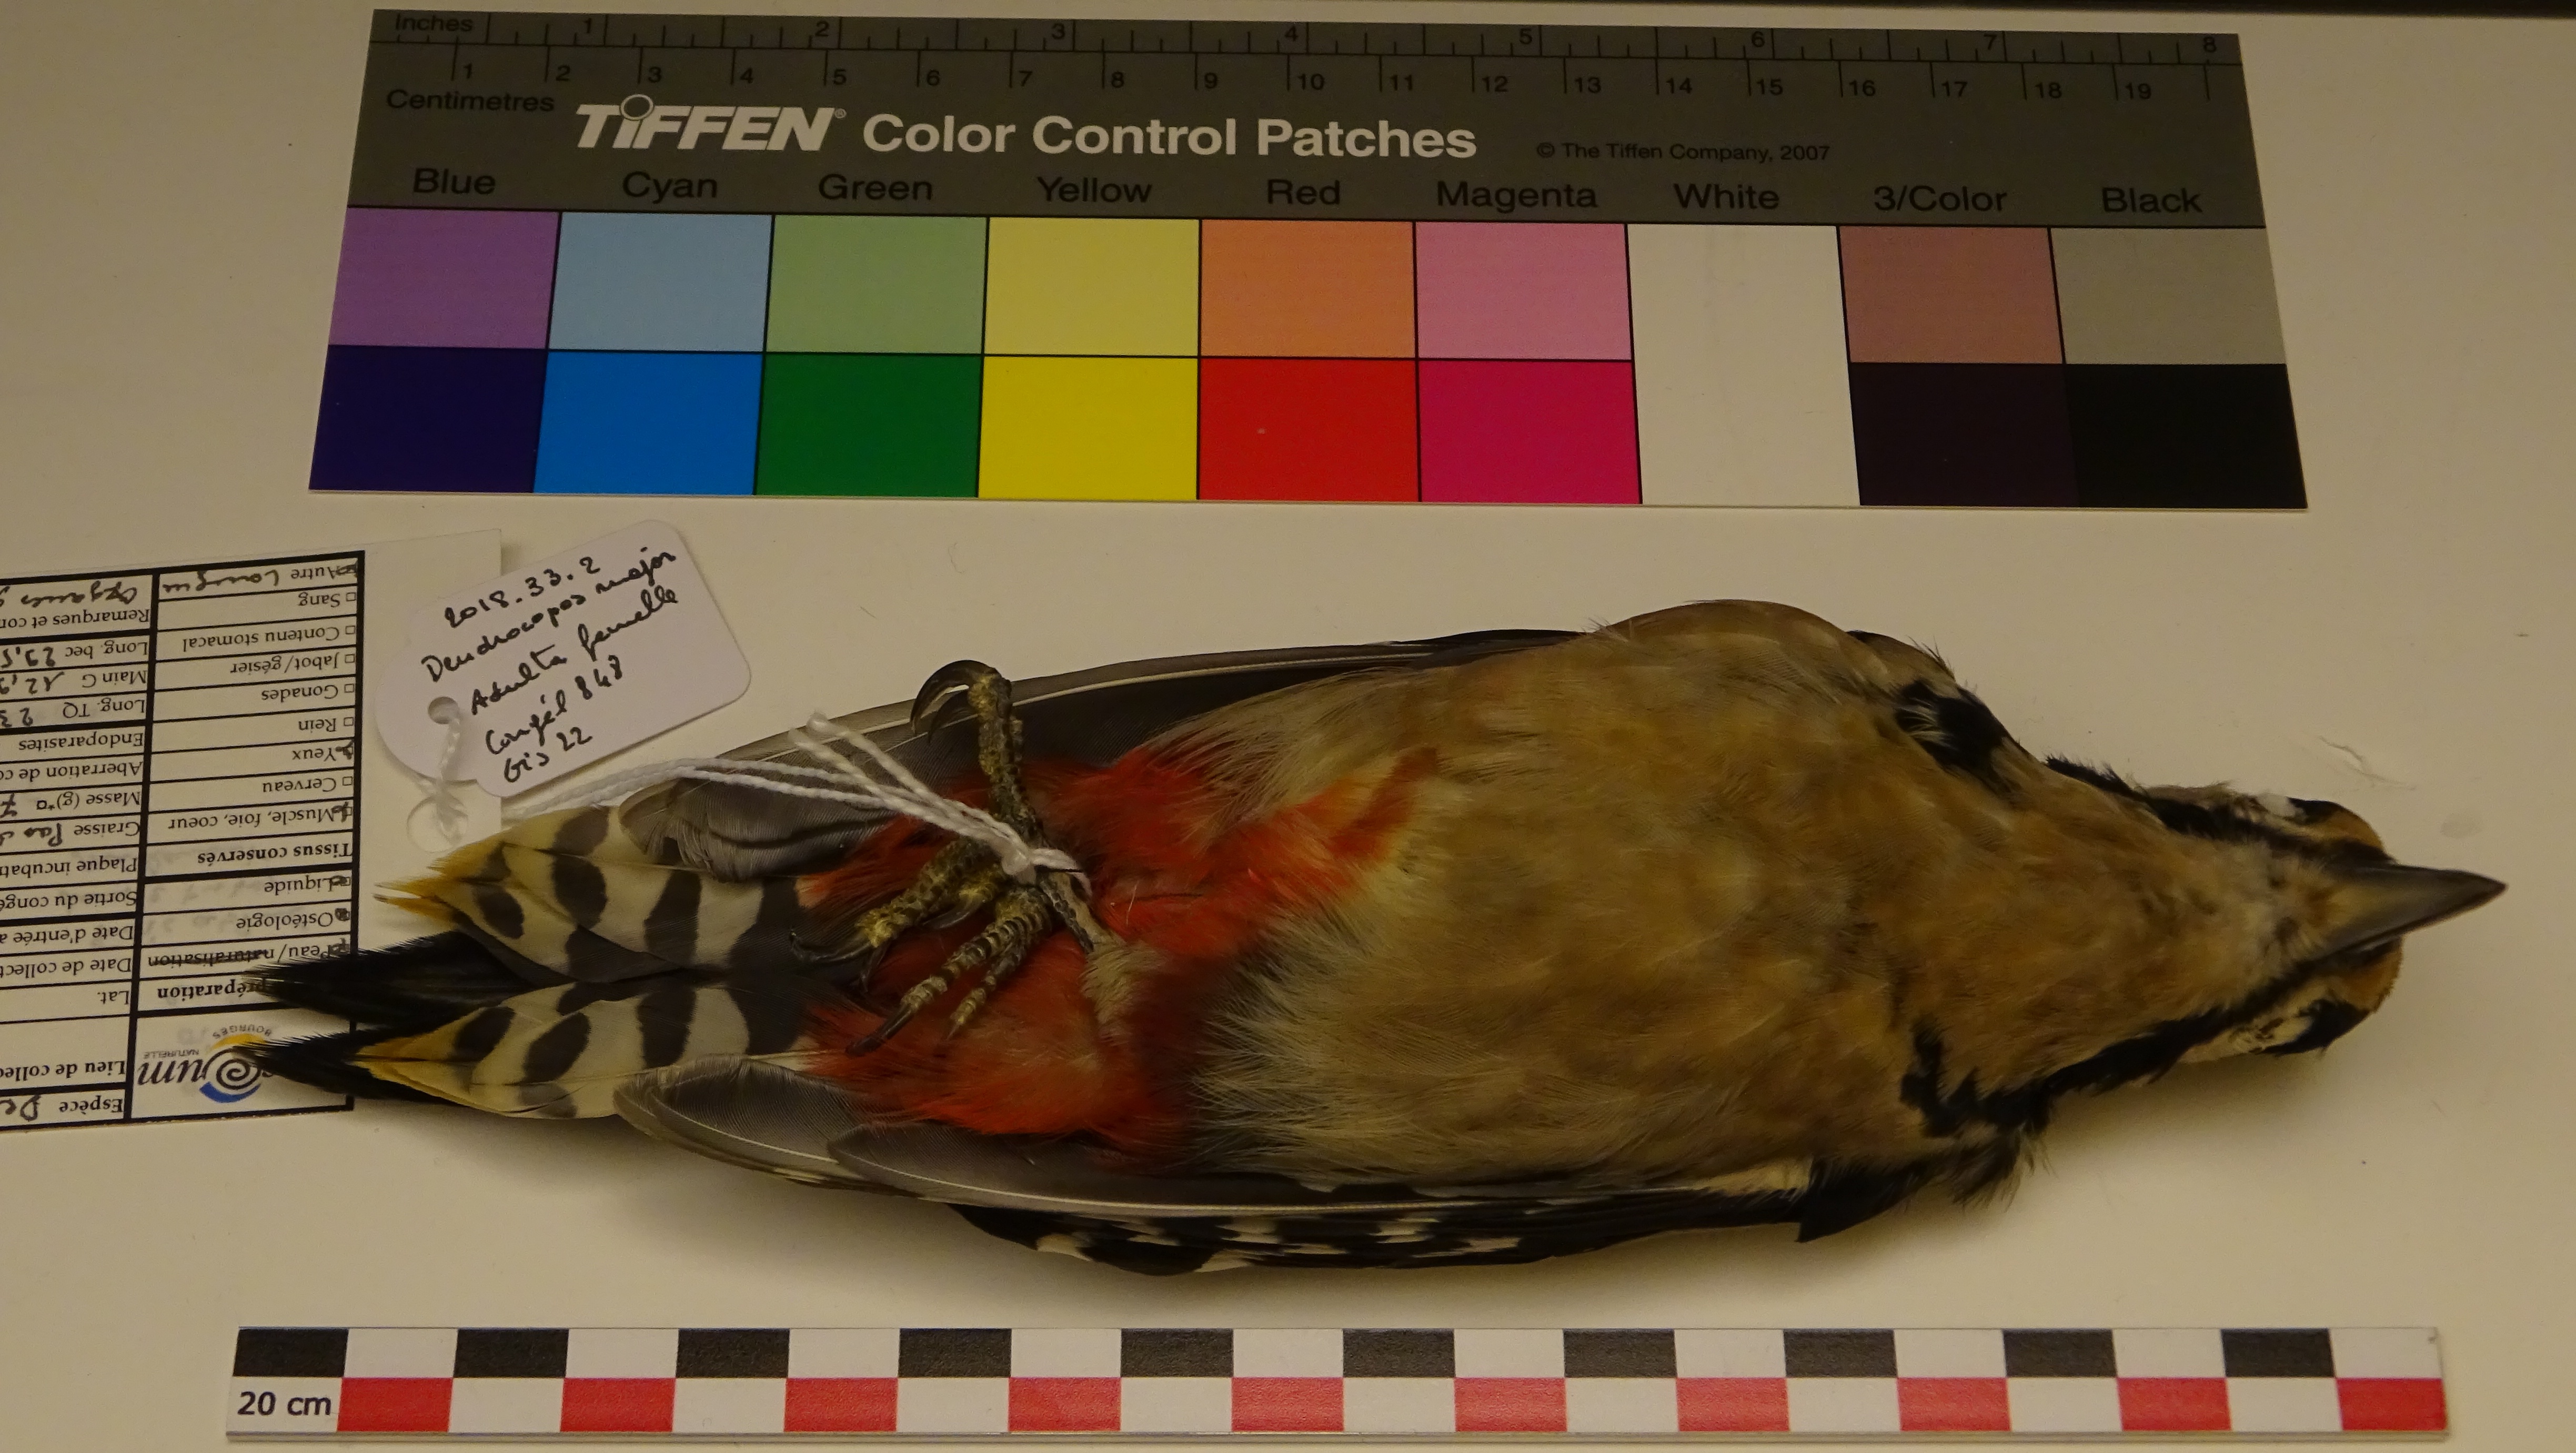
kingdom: Animalia
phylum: Chordata
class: Aves
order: Piciformes
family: Picidae
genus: Dendrocopos
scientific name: Dendrocopos major
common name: Great spotted woodpecker
